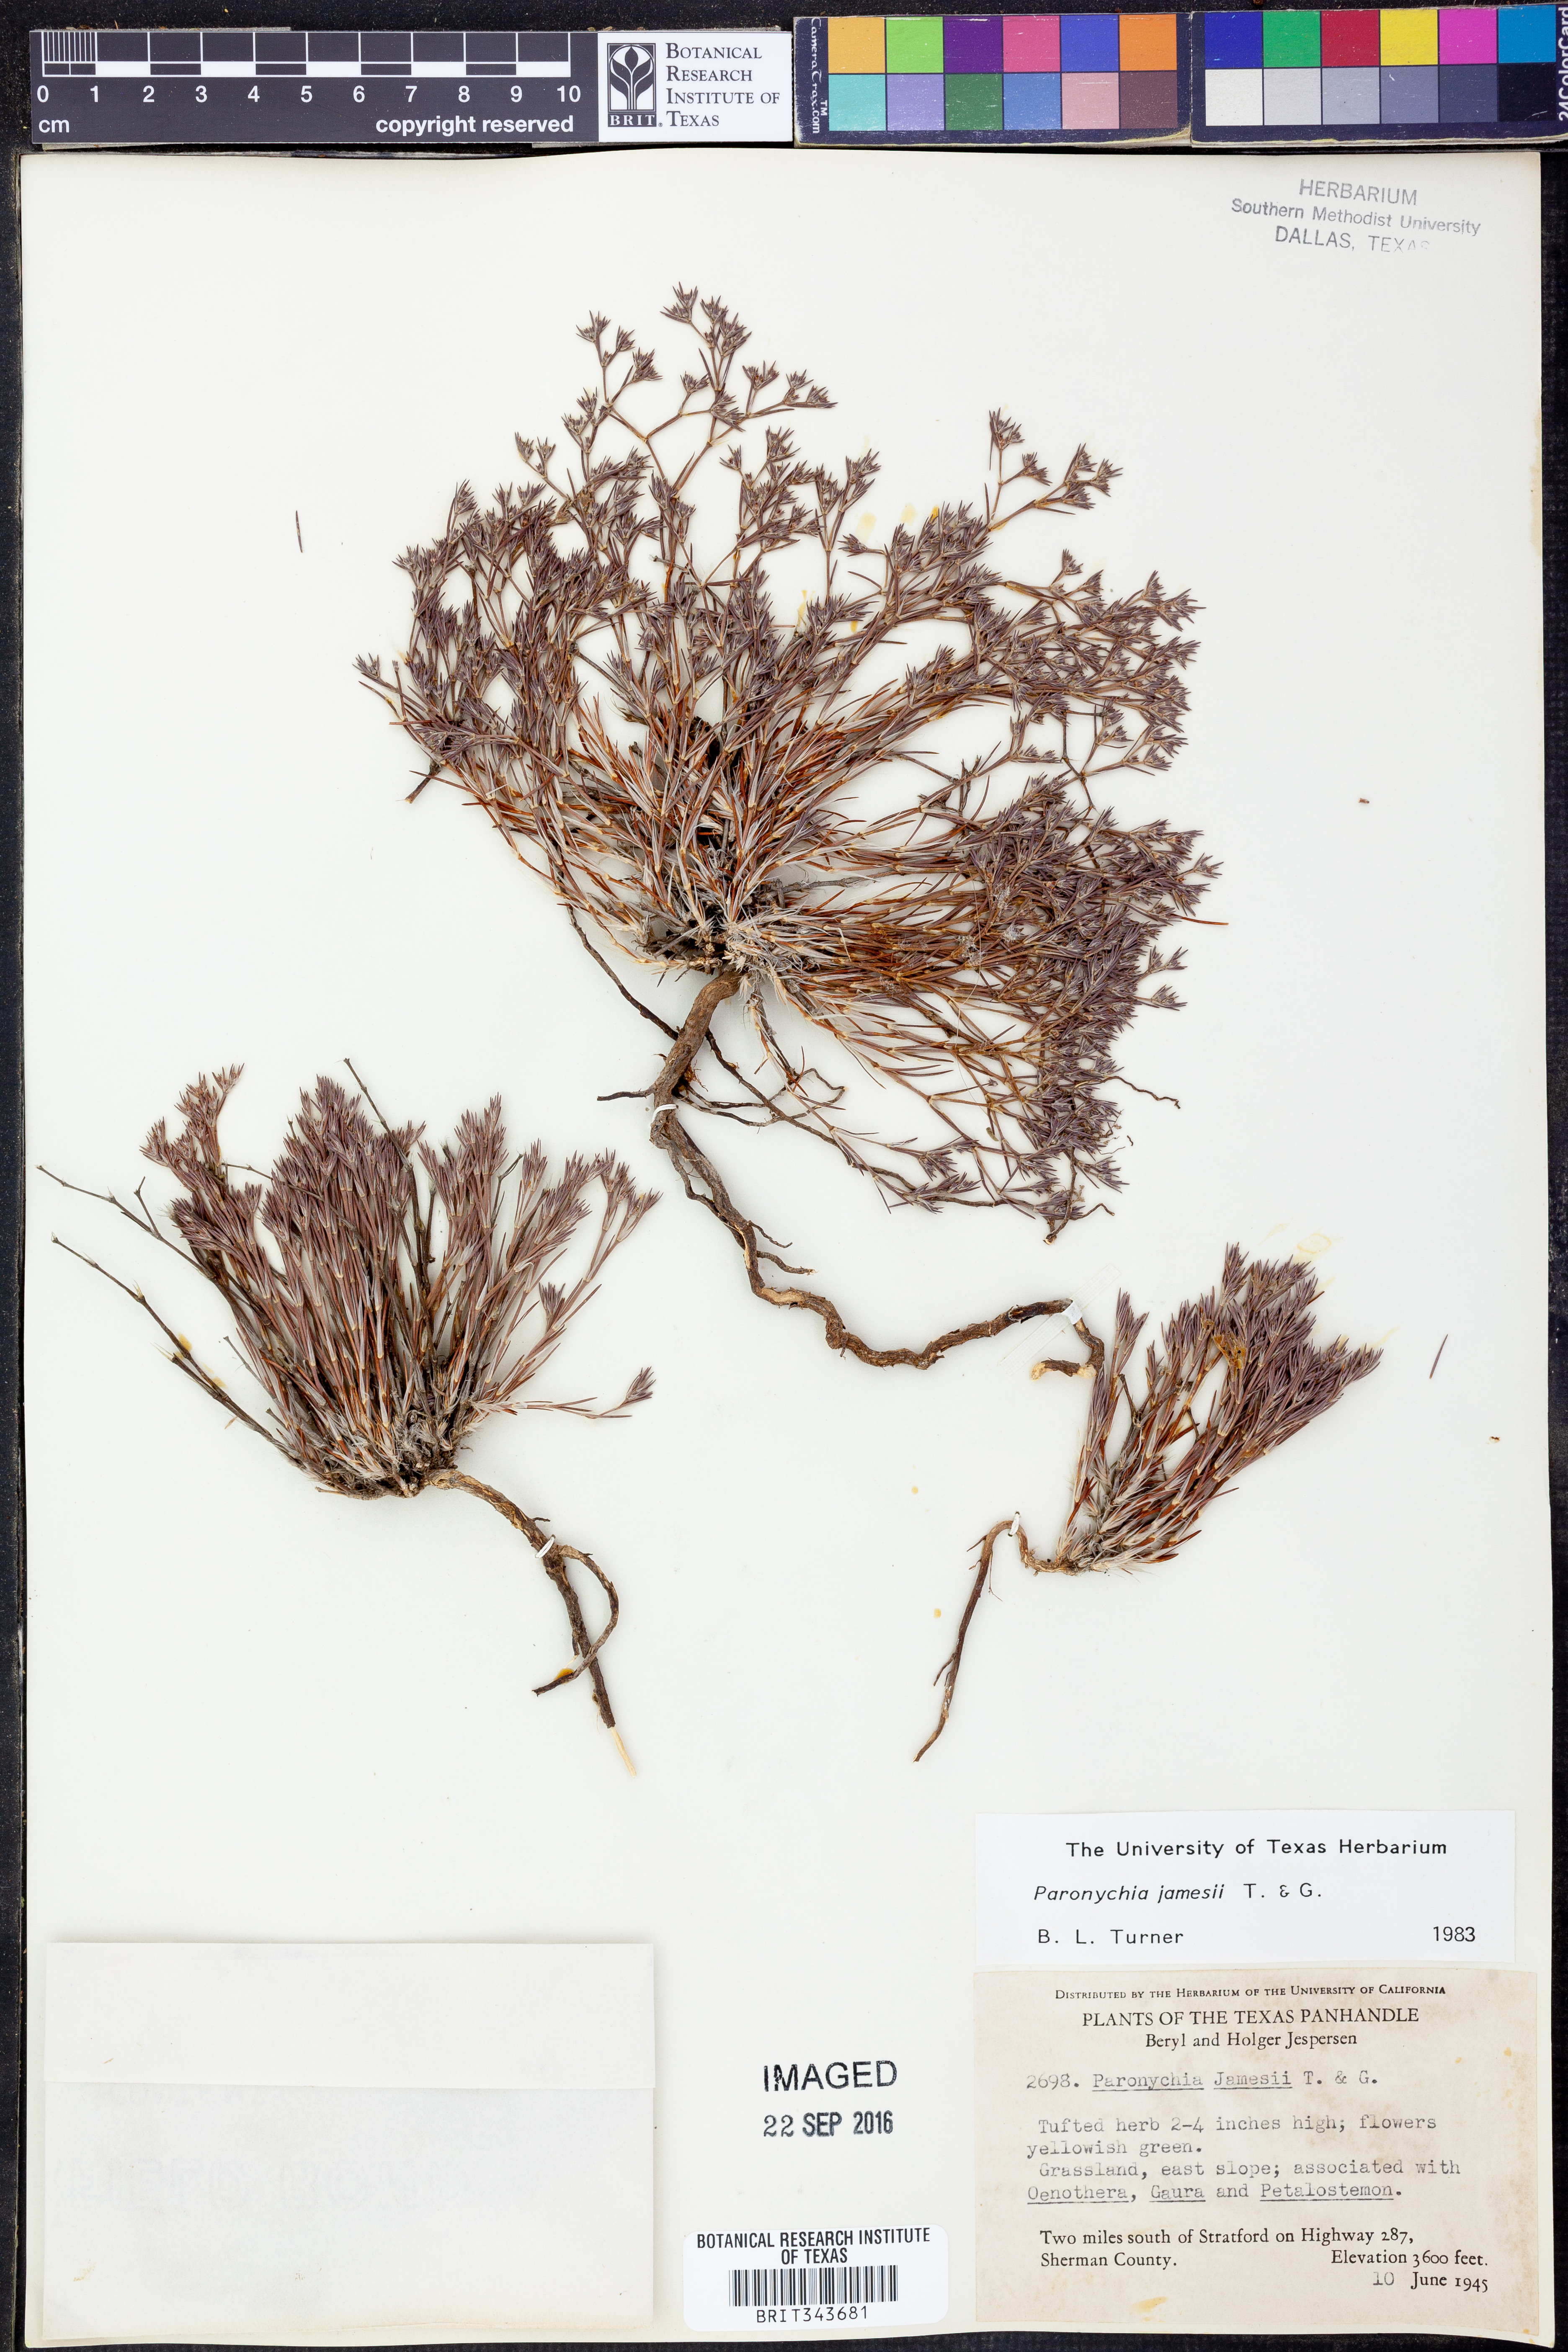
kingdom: Plantae
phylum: Tracheophyta
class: Magnoliopsida
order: Caryophyllales
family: Caryophyllaceae
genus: Paronychia
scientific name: Paronychia jamesii
